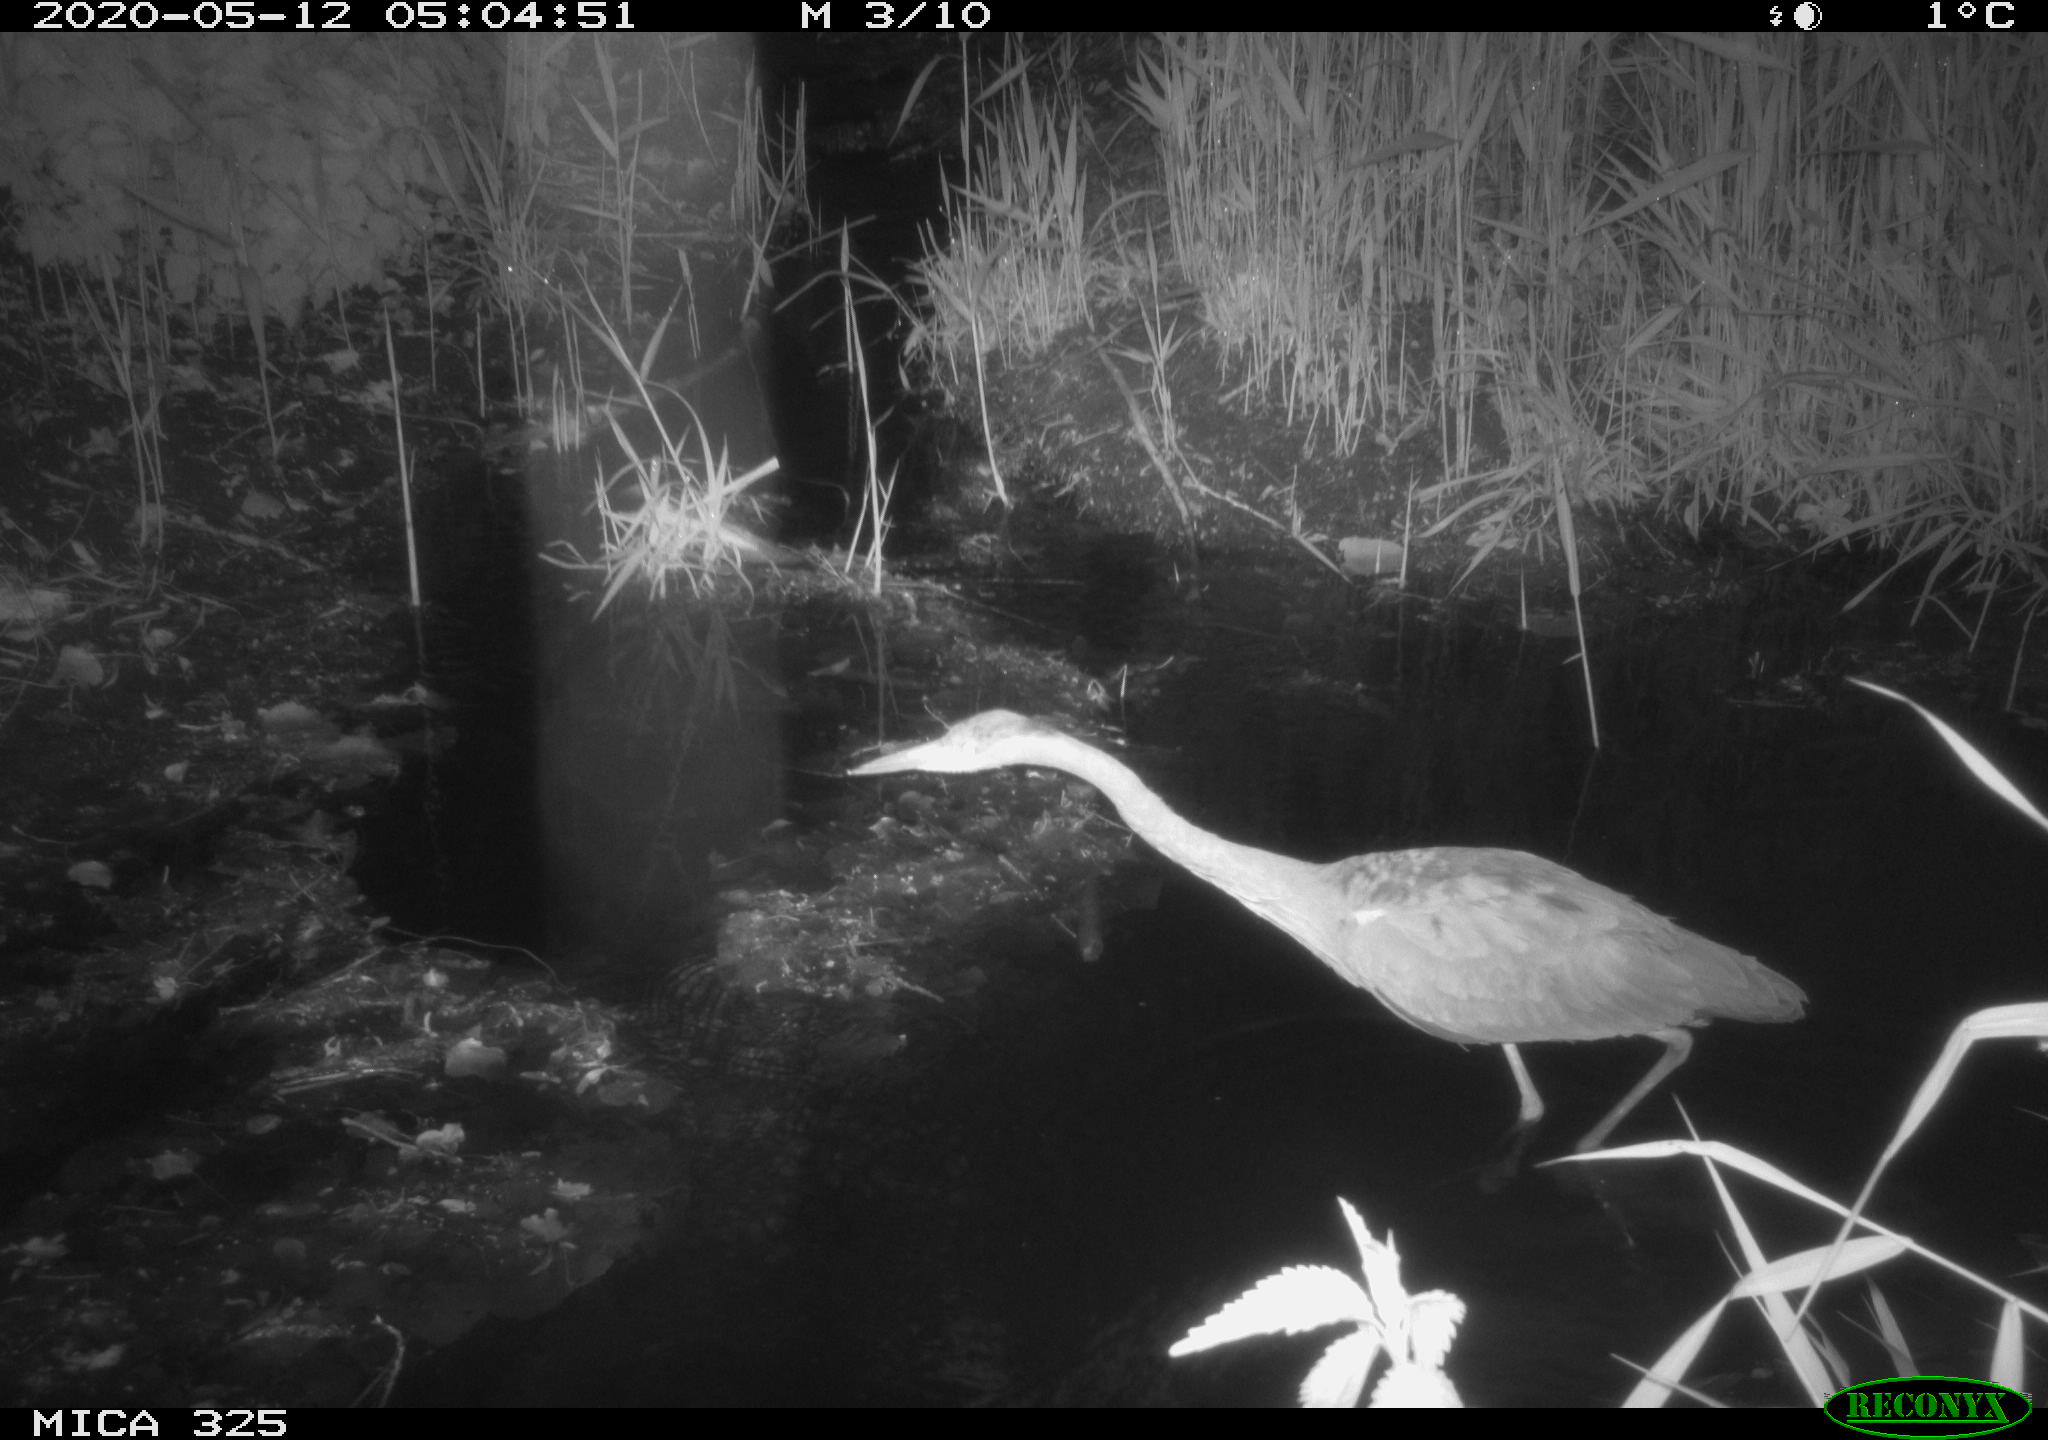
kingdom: Animalia
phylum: Chordata
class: Aves
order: Pelecaniformes
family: Ardeidae
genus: Ardea
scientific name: Ardea cinerea
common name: Grey heron
